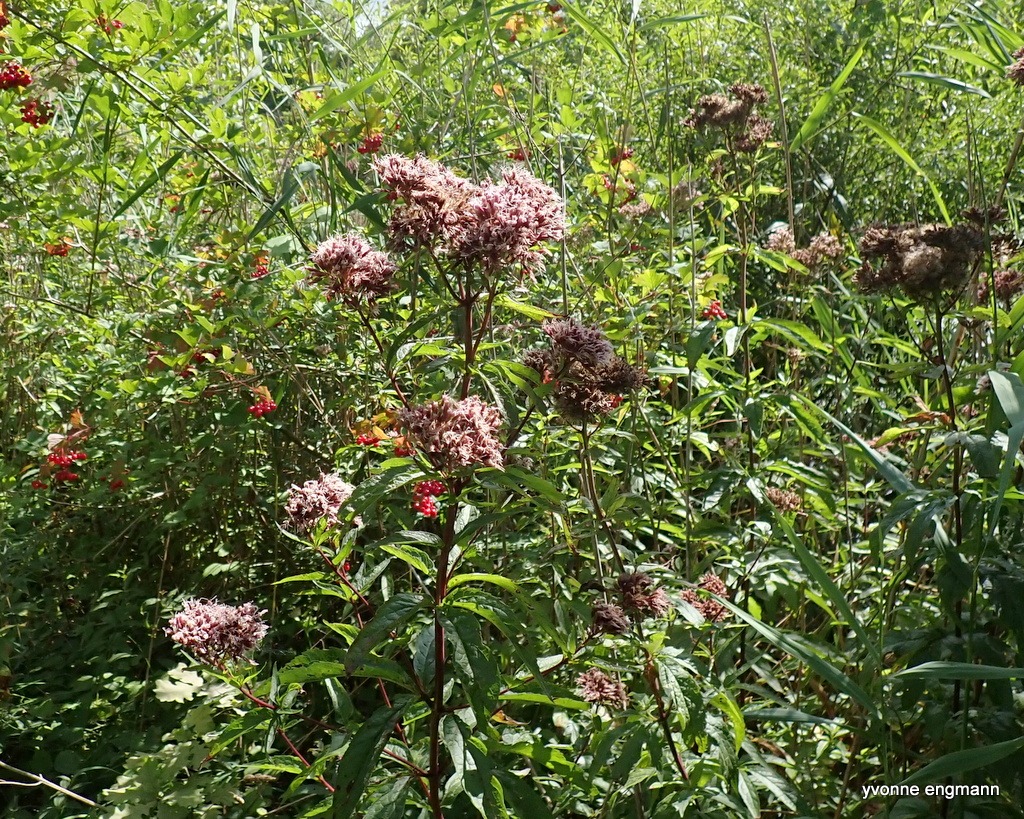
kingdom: Plantae
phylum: Tracheophyta
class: Magnoliopsida
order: Asterales
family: Asteraceae
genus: Eupatorium
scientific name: Eupatorium cannabinum
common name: Hjortetrøst
